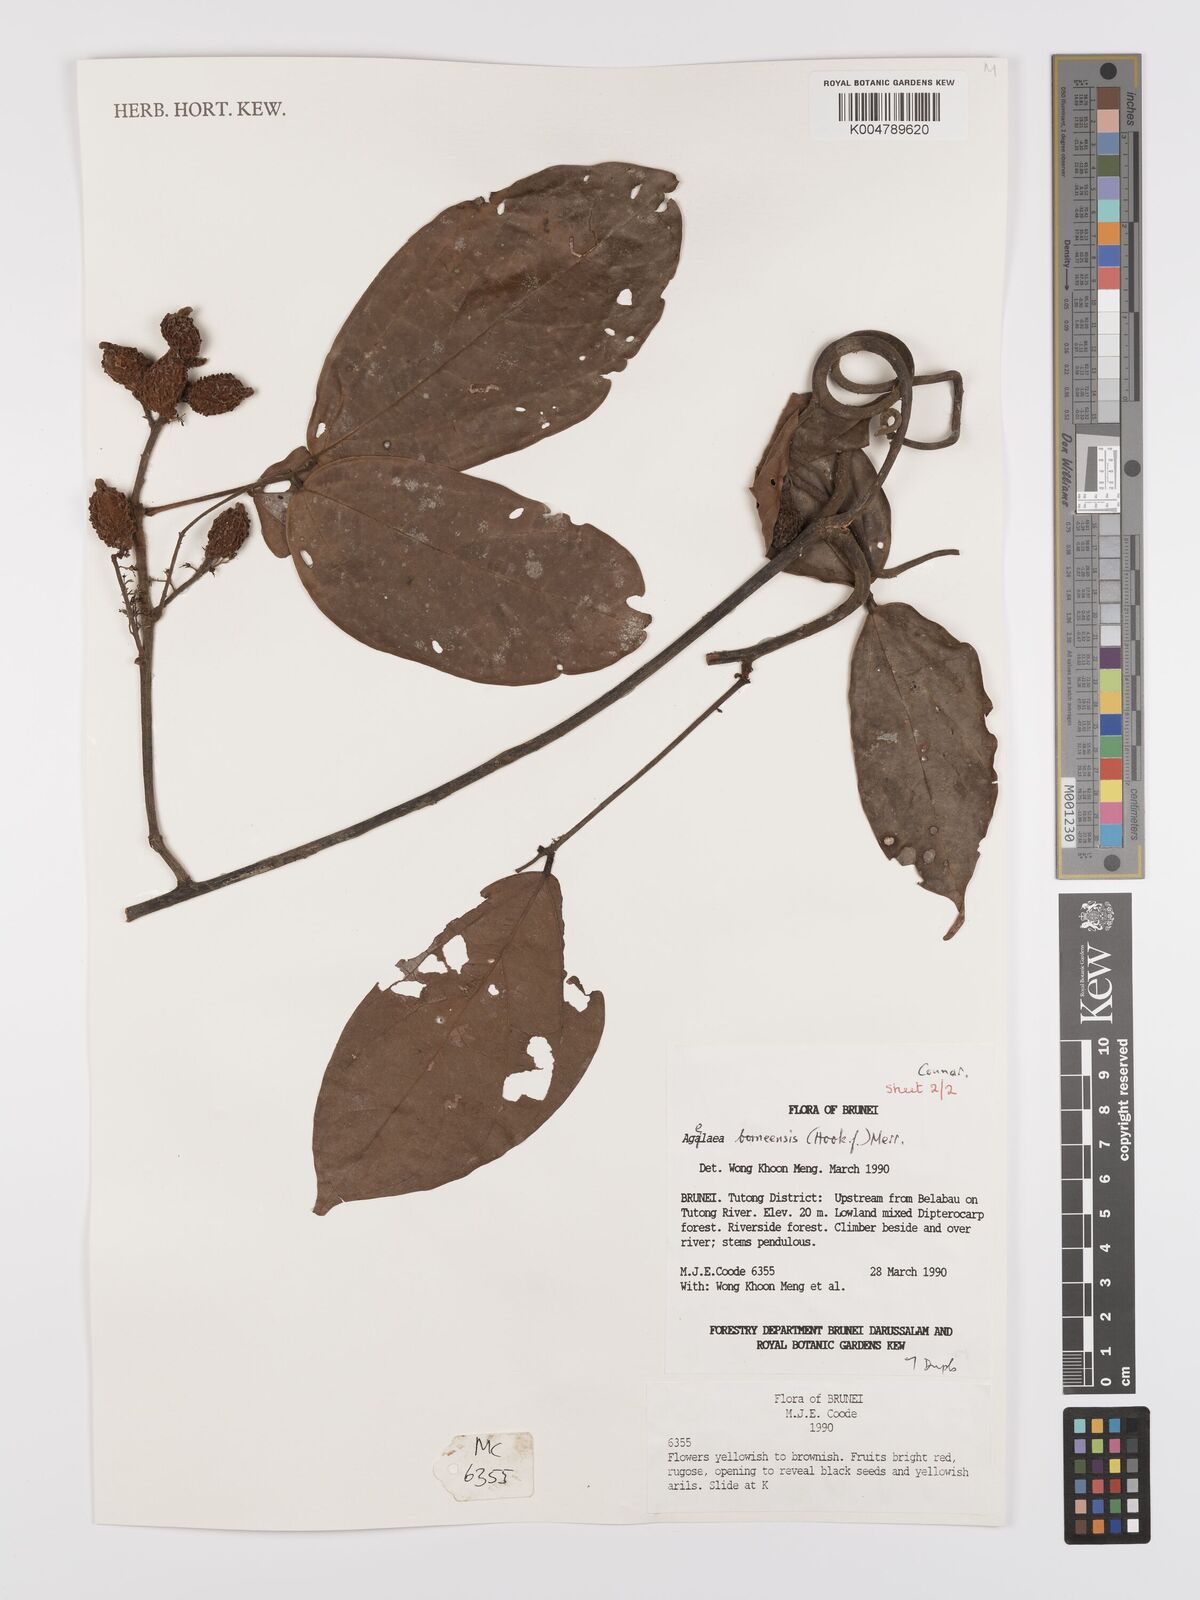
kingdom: Plantae
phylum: Tracheophyta
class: Magnoliopsida
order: Oxalidales
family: Connaraceae
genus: Agelaea
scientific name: Agelaea borneensis
